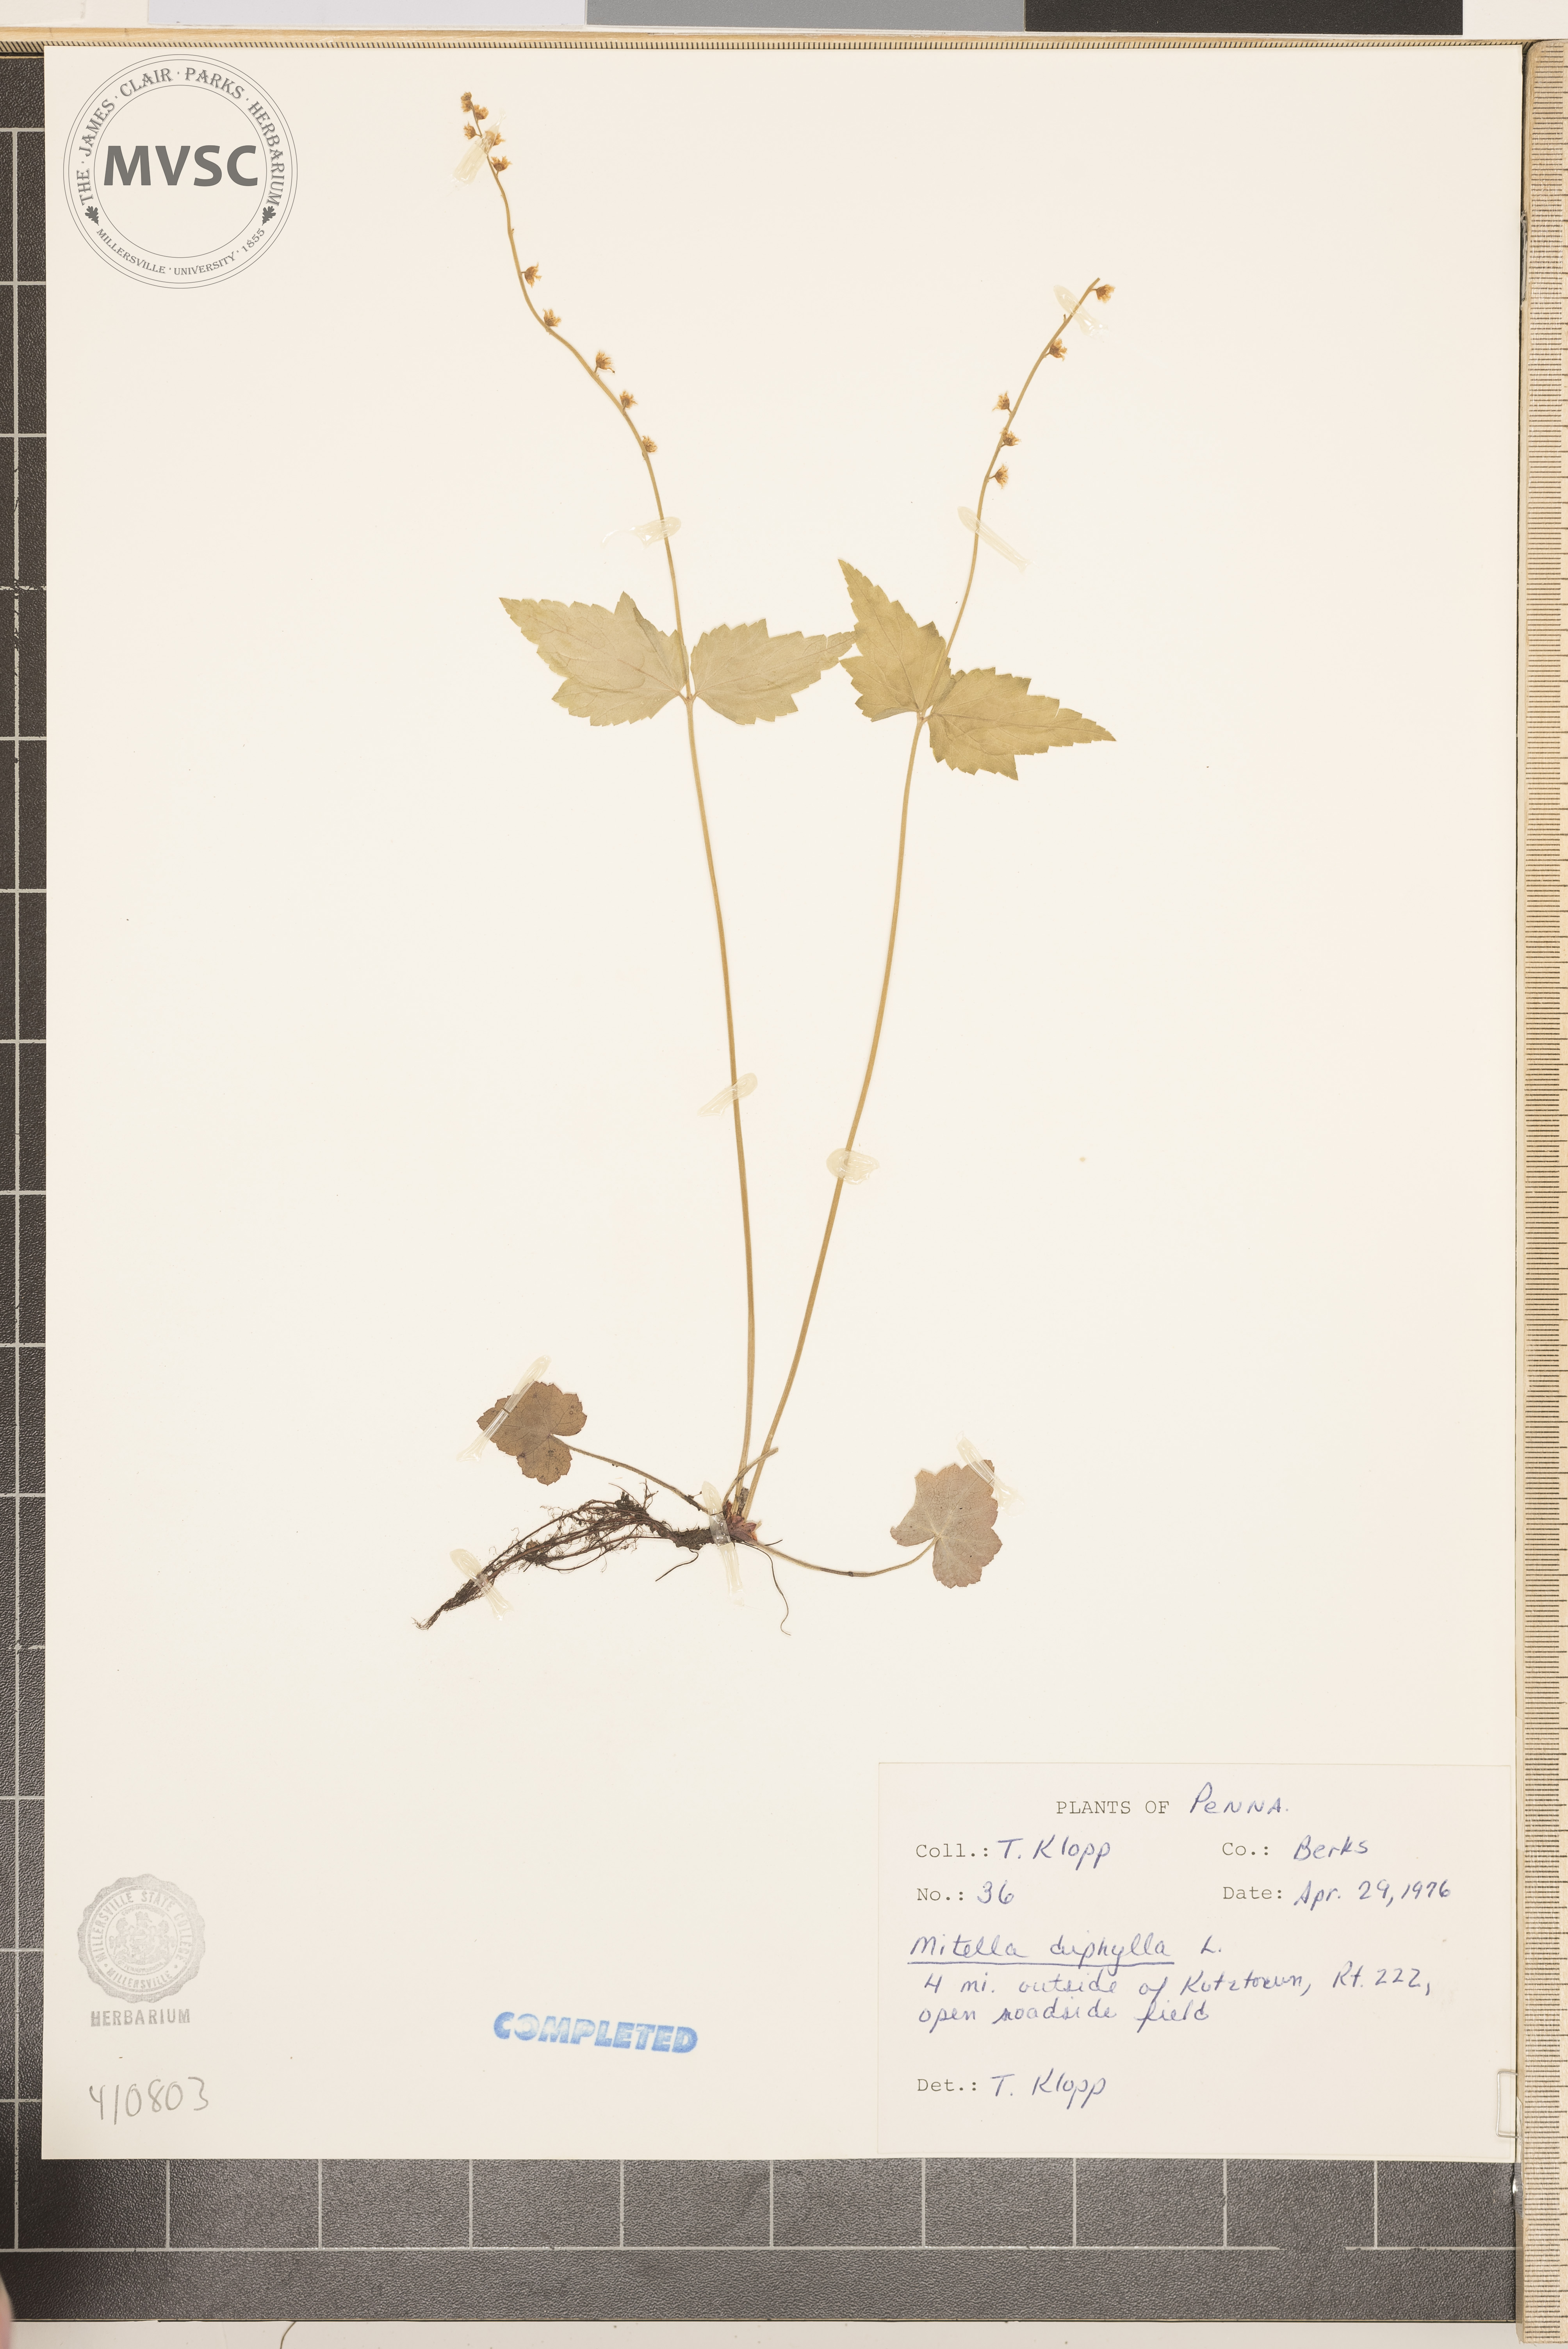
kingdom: Plantae
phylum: Tracheophyta
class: Magnoliopsida
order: Saxifragales
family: Saxifragaceae
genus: Mitella
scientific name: Mitella diphylla
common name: Coolwort
